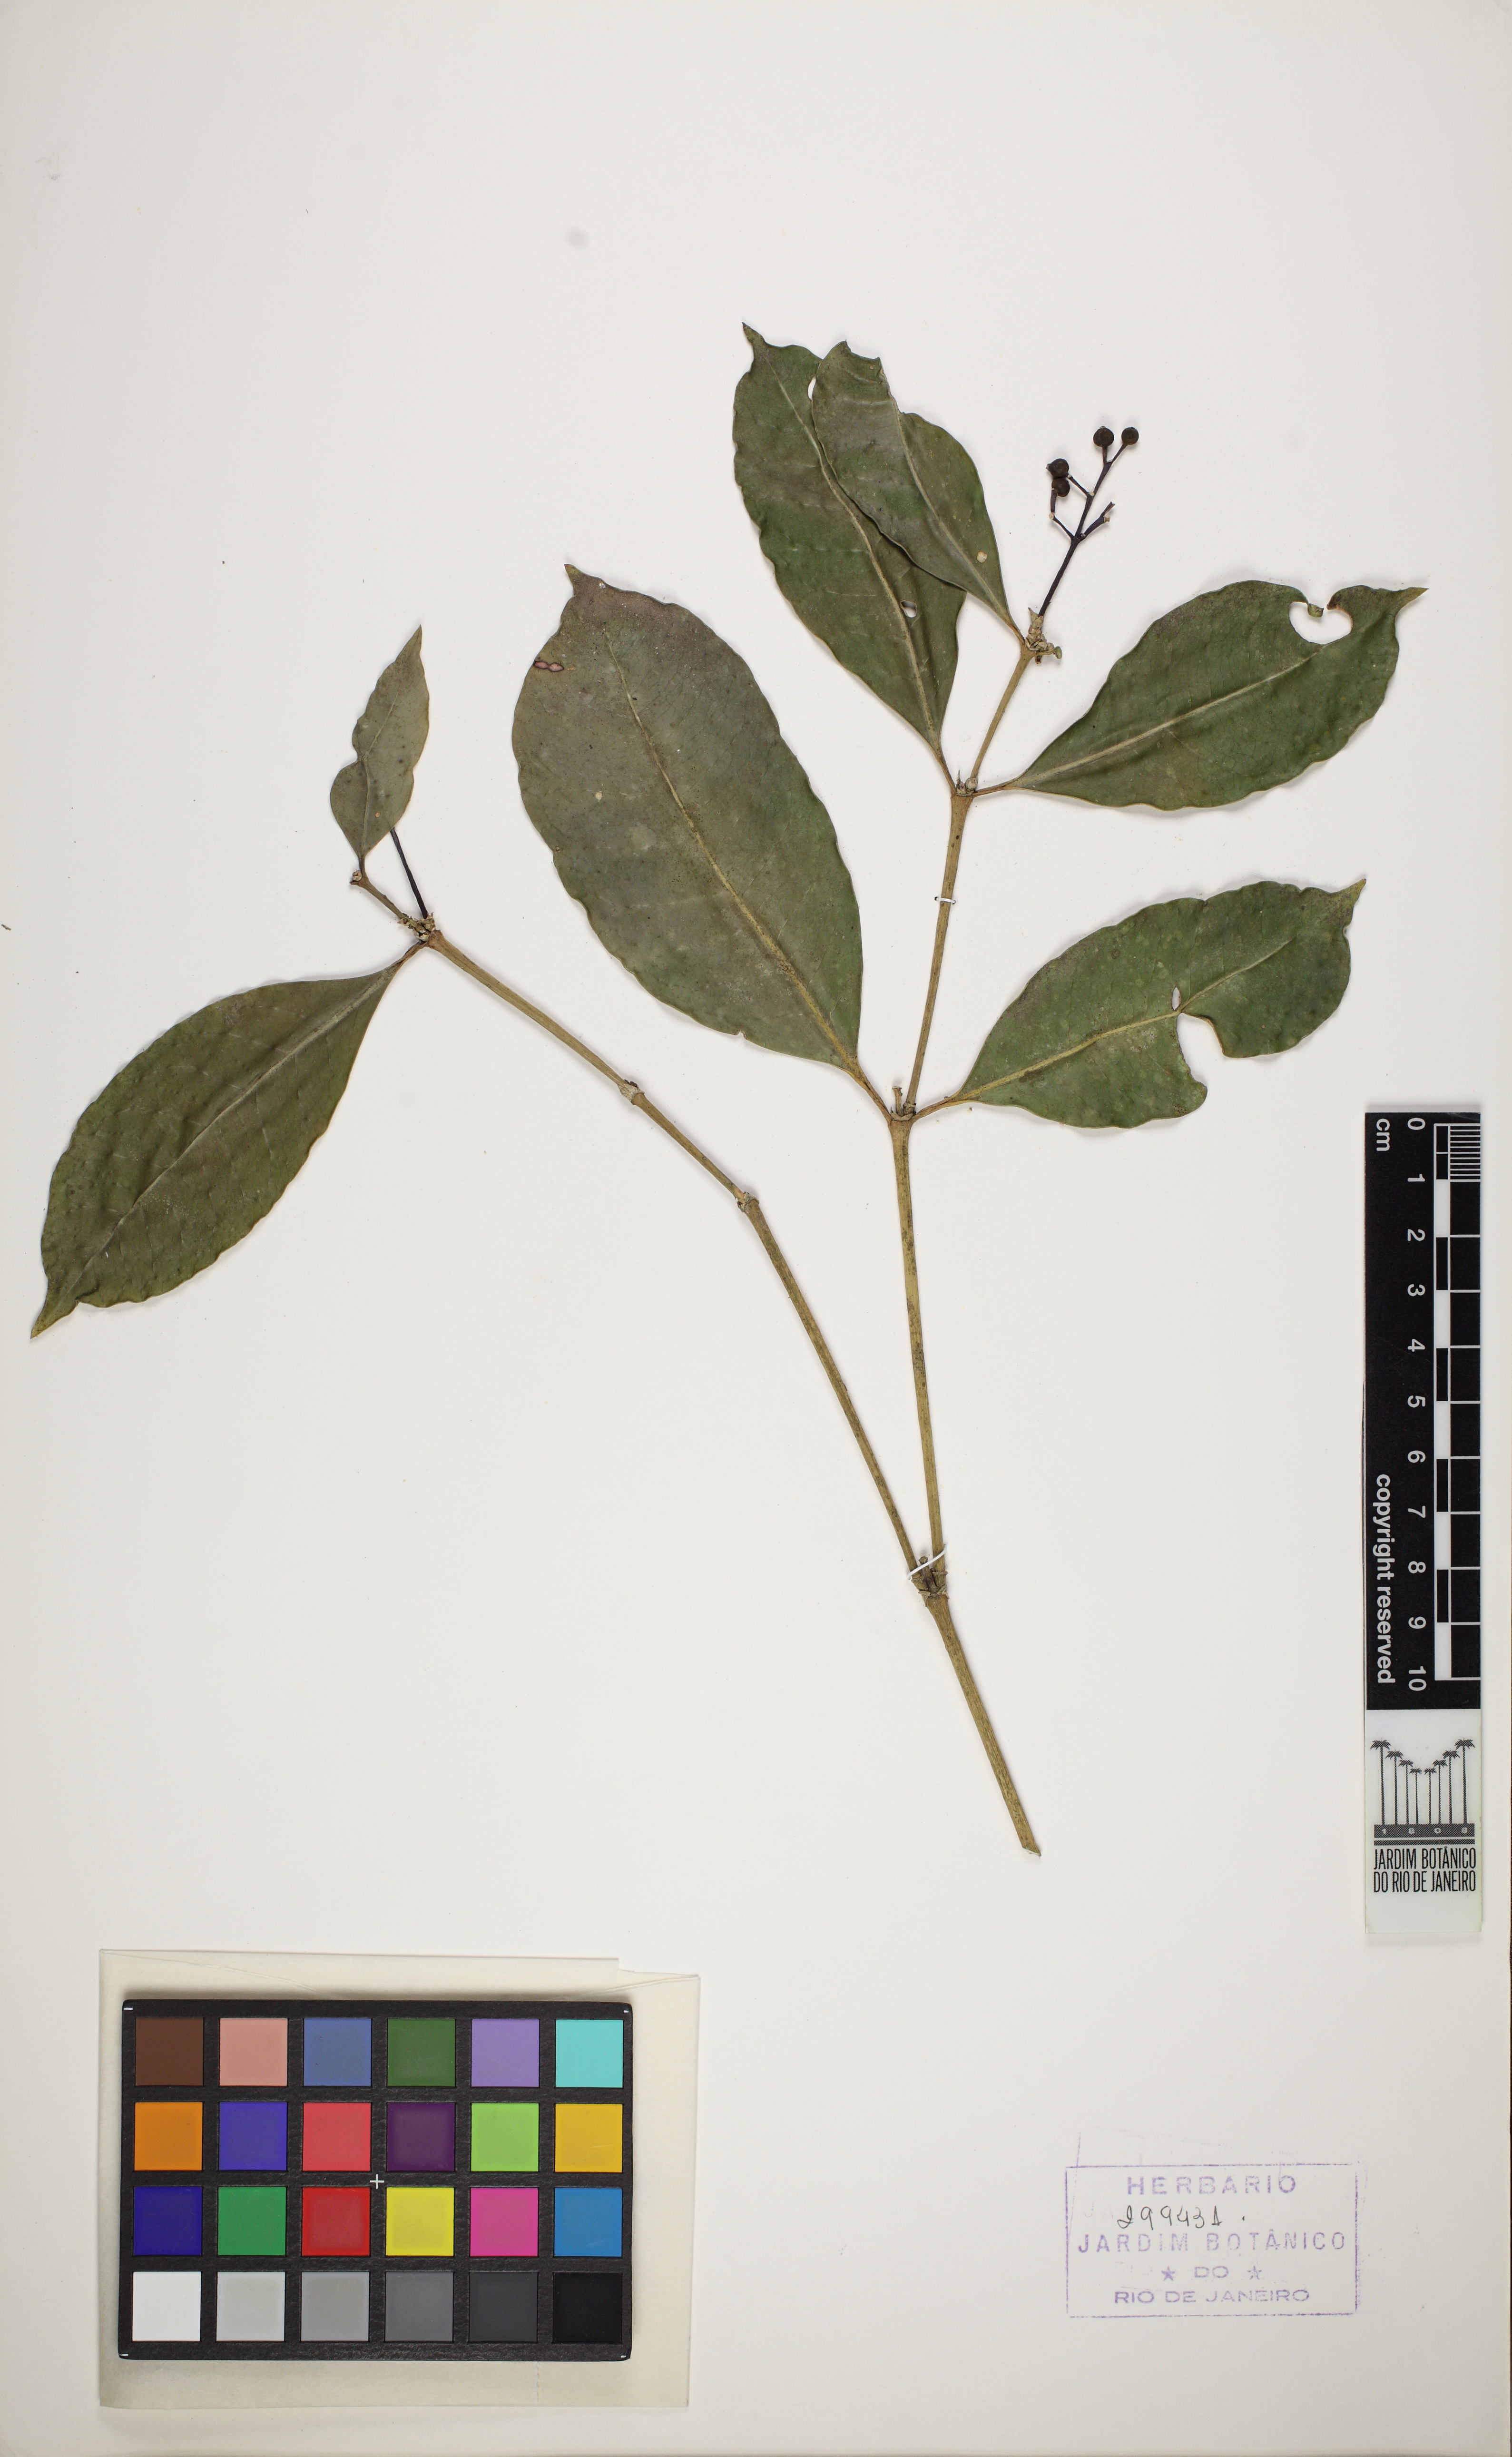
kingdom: Plantae
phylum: Tracheophyta
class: Magnoliopsida
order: Gentianales
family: Rubiaceae
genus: Faramea
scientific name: Faramea tenuiflora
